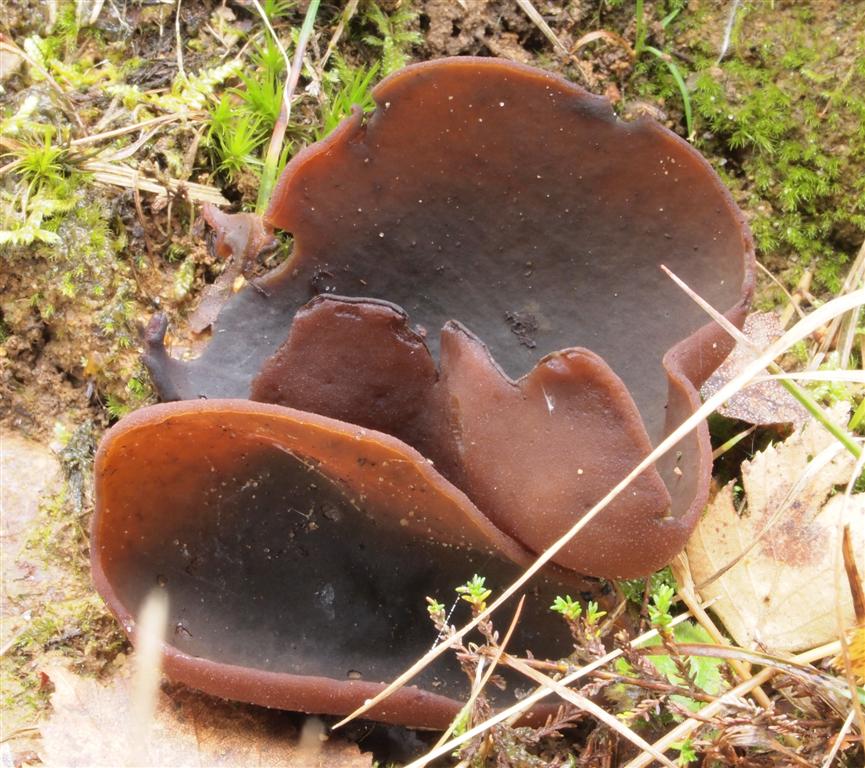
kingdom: Fungi
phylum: Ascomycota
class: Pezizomycetes
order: Pezizales
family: Pezizaceae
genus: Legaliana
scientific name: Legaliana badia
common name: leverbrun bægersvamp
